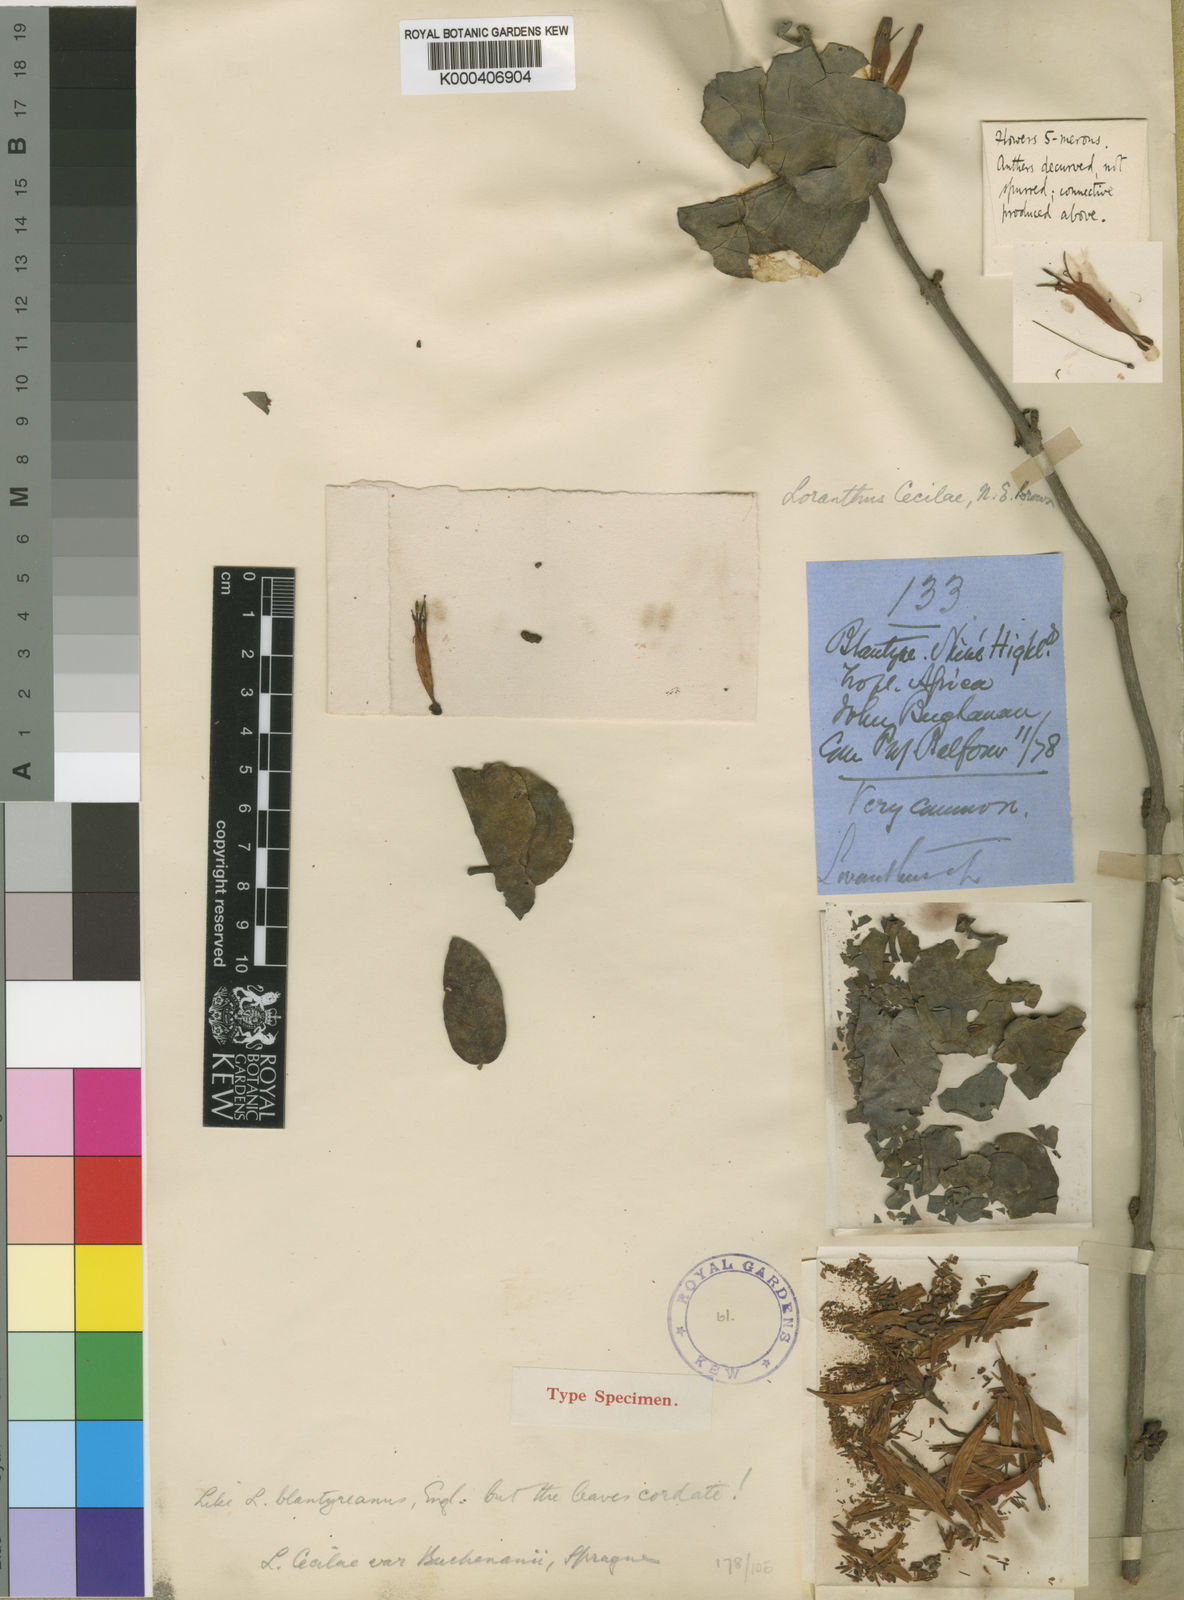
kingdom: Plantae
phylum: Tracheophyta
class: Magnoliopsida
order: Santalales
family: Loranthaceae
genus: Agelanthus
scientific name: Agelanthus pungu
